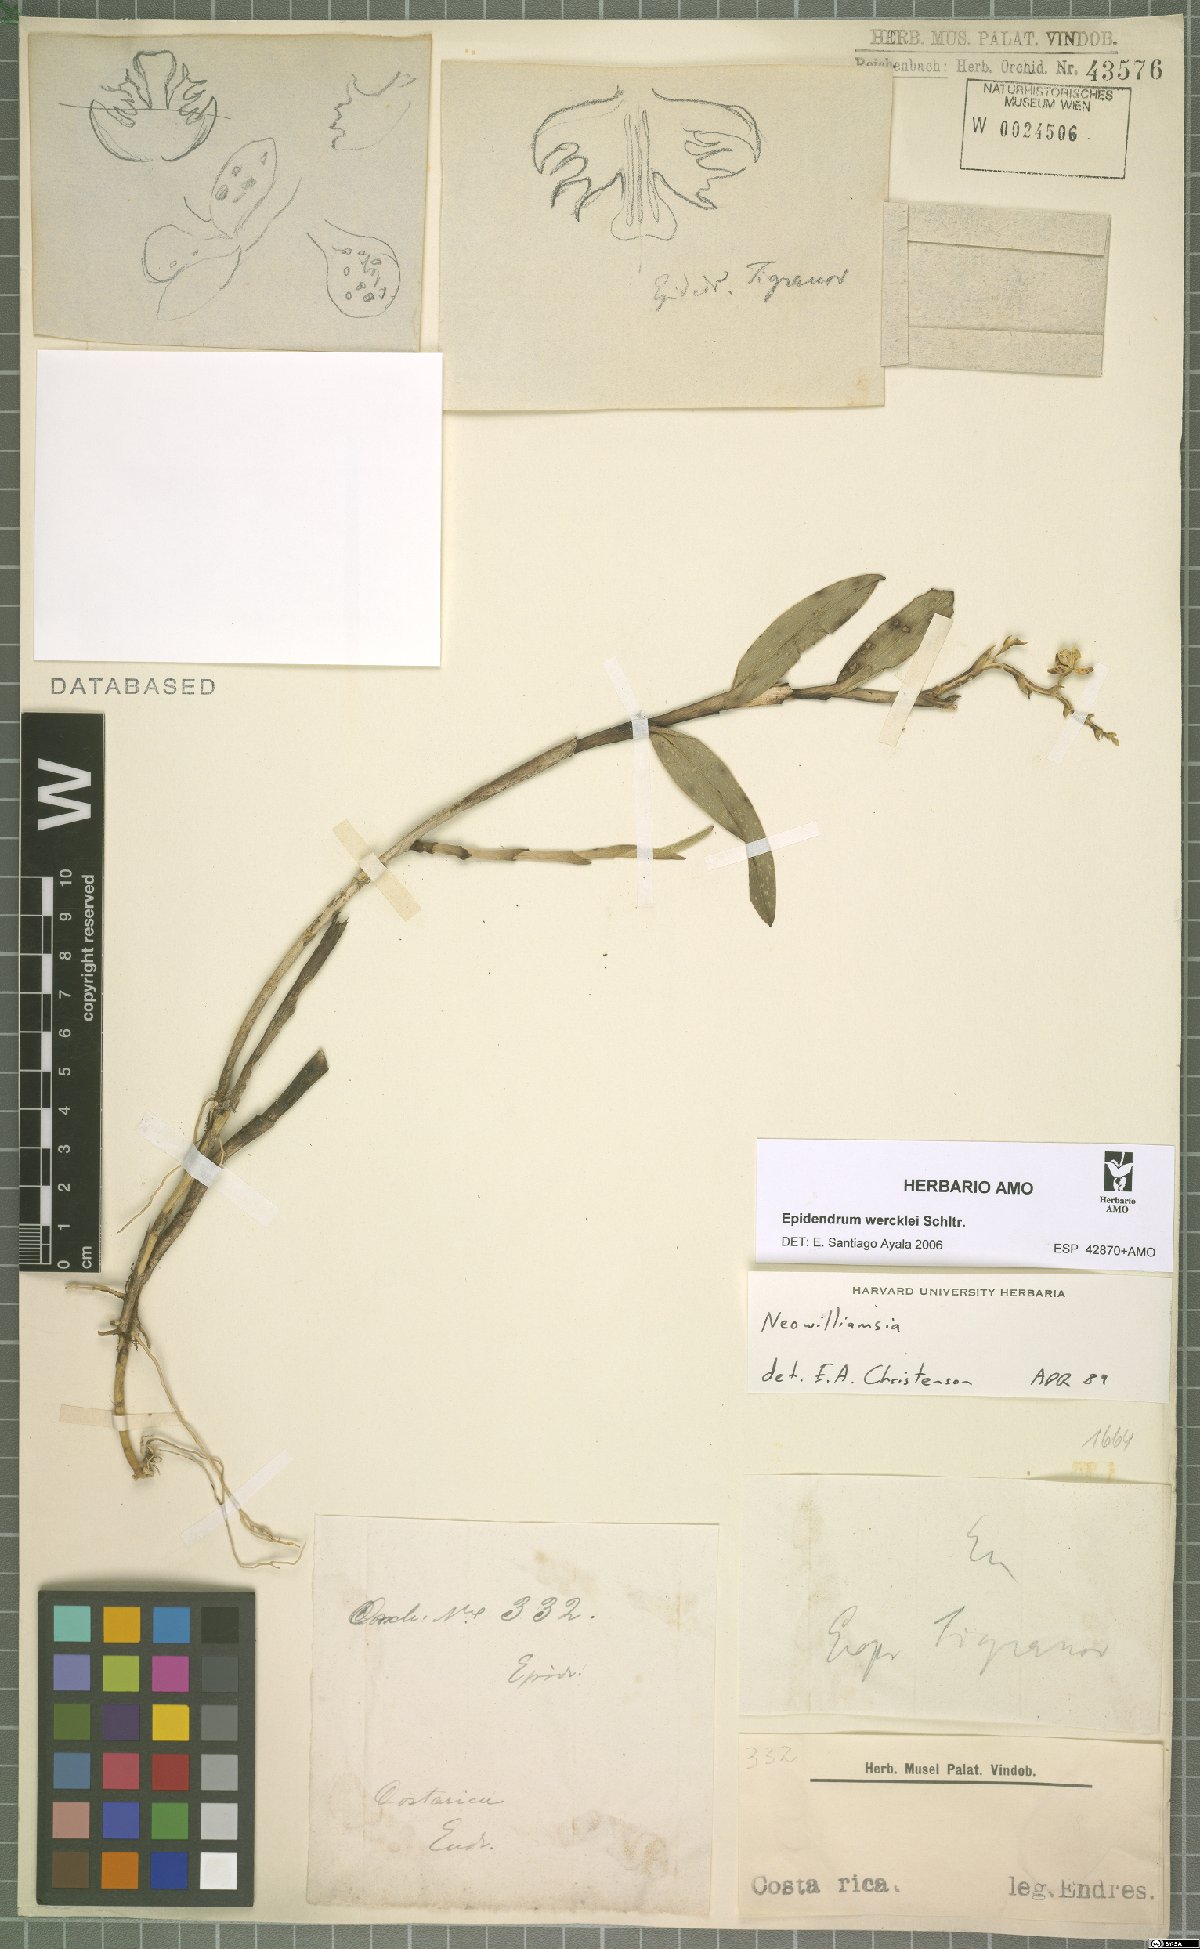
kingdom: Plantae
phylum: Tracheophyta
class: Liliopsida
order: Asparagales
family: Orchidaceae
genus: Epidendrum
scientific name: Epidendrum wercklei
